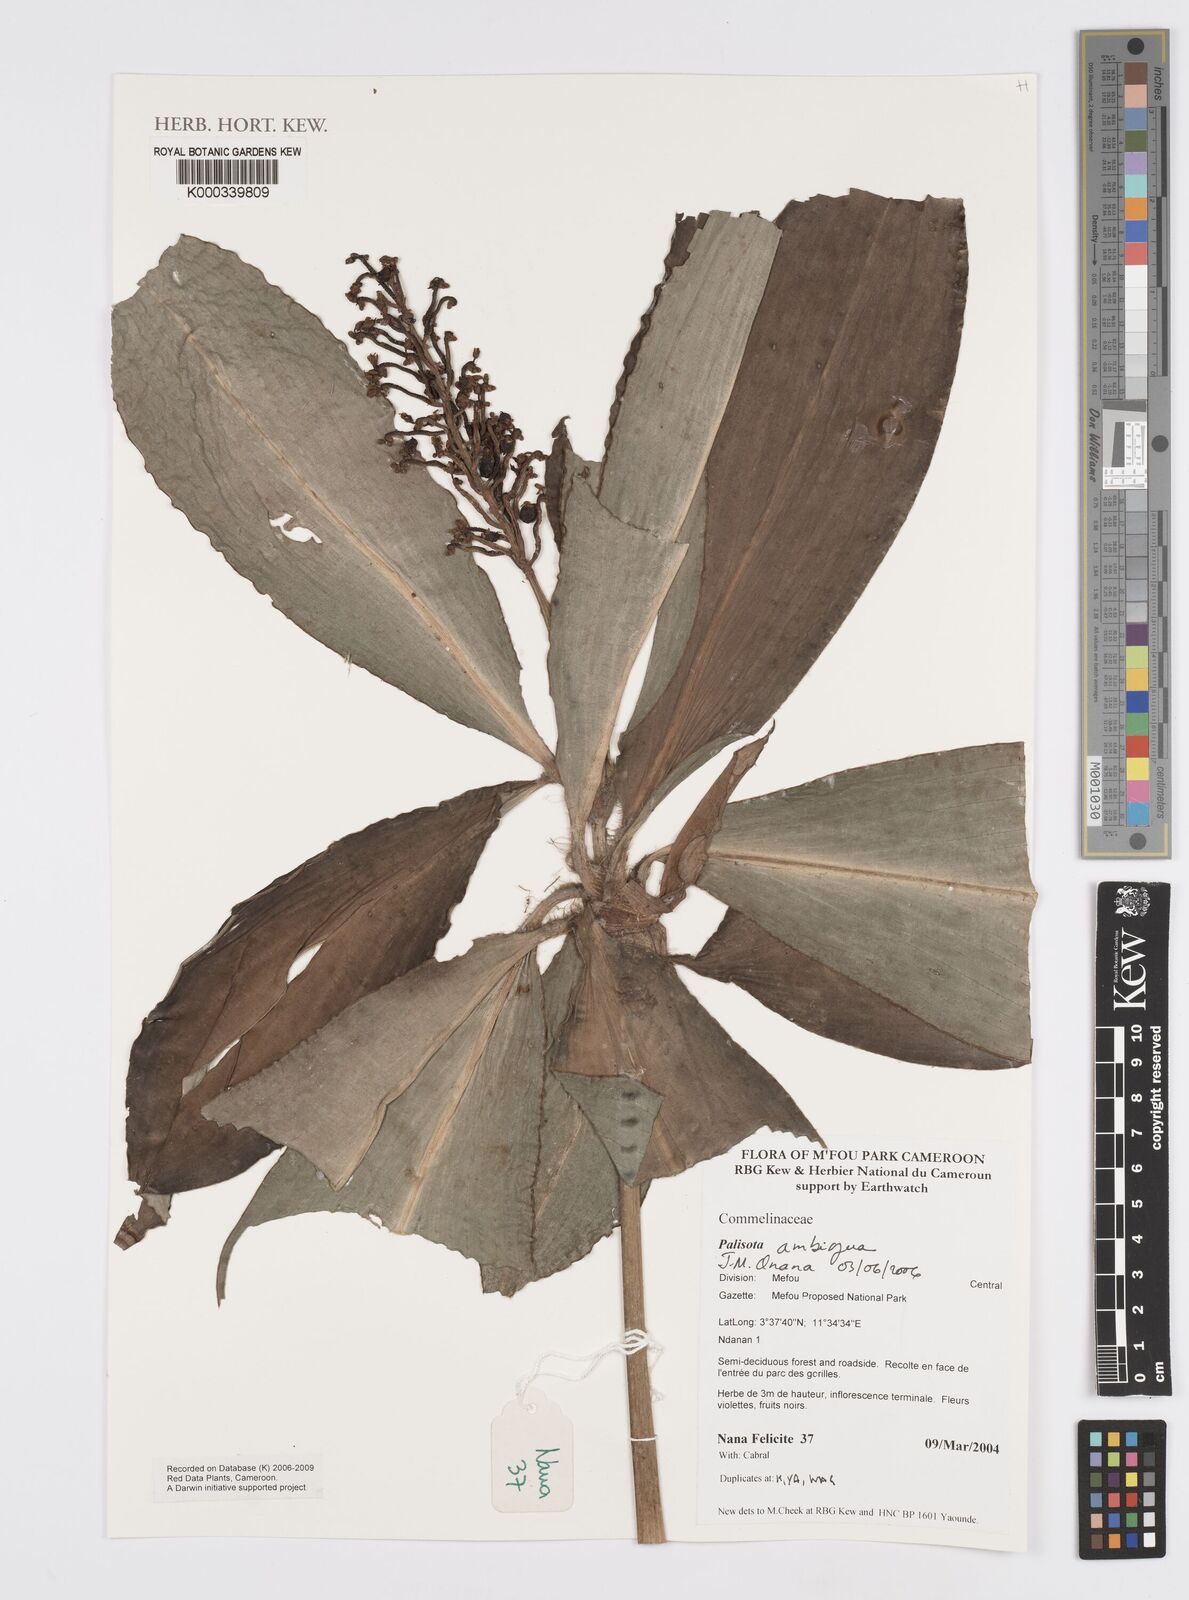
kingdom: Plantae
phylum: Tracheophyta
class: Liliopsida
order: Commelinales
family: Commelinaceae
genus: Palisota
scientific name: Palisota ambigua
